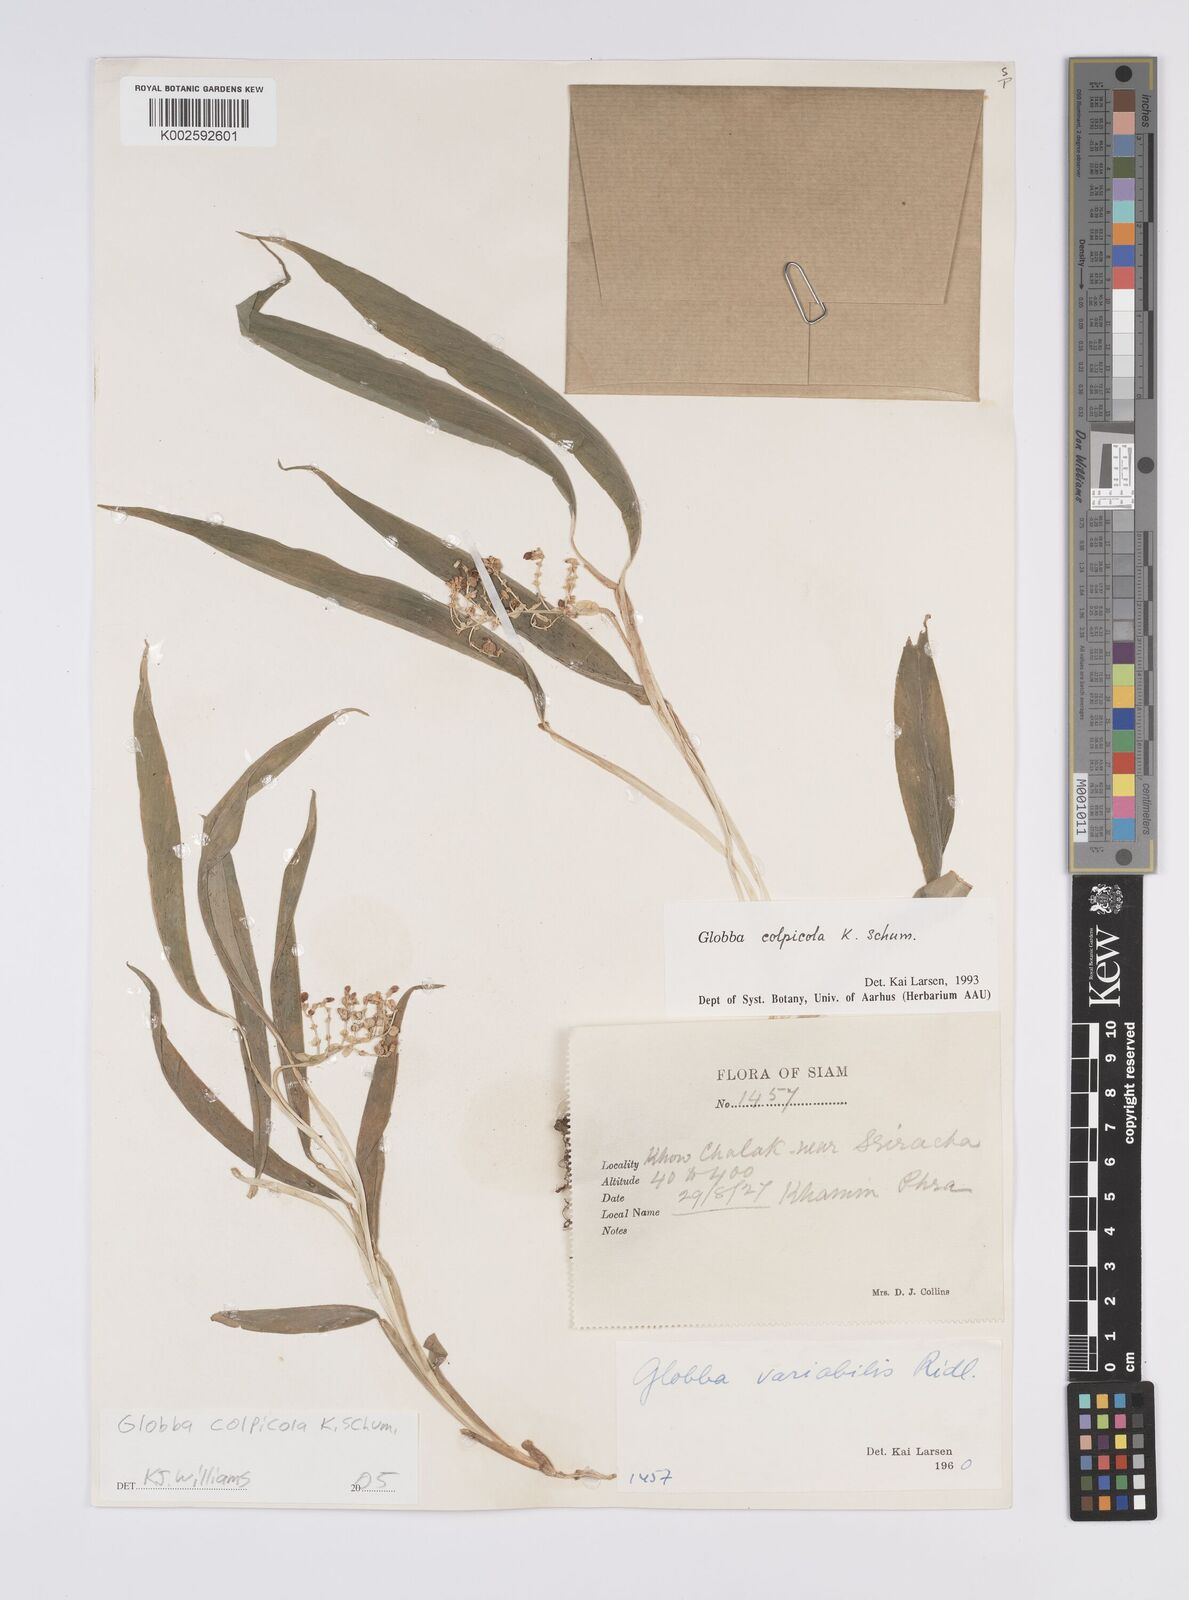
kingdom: Plantae
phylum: Tracheophyta
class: Liliopsida
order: Zingiberales
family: Zingiberaceae
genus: Globba
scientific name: Globba colpicola
